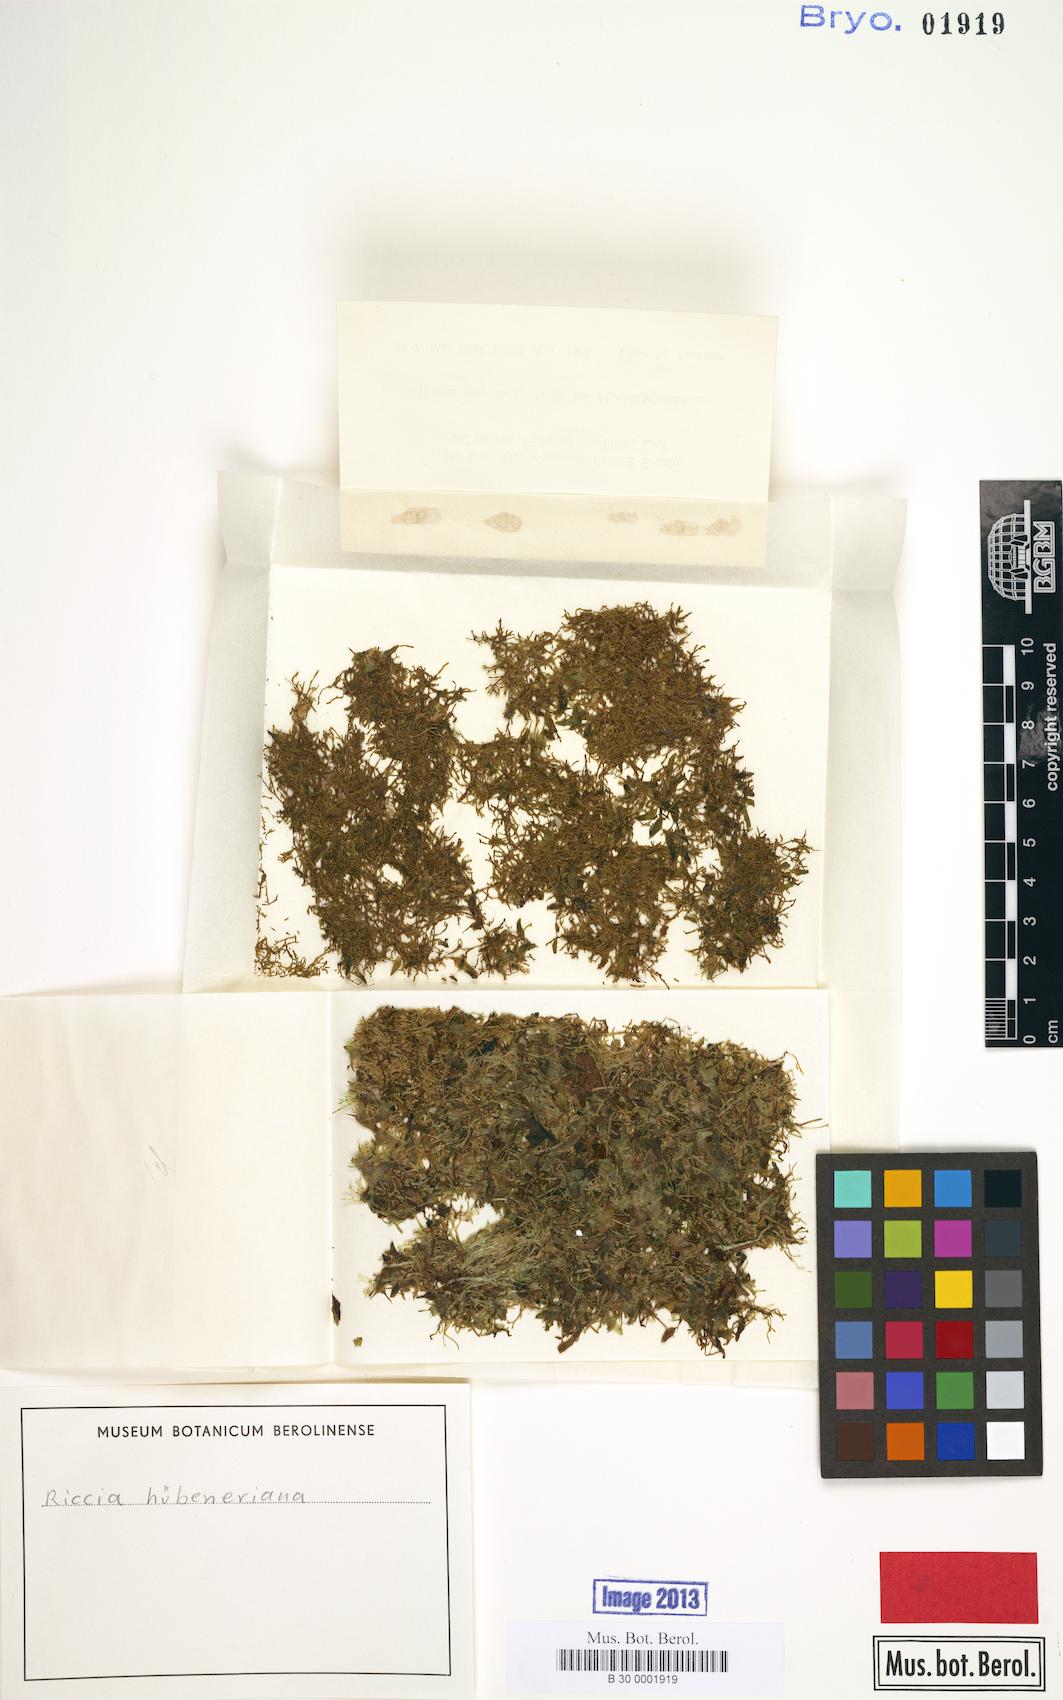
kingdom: Plantae
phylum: Marchantiophyta
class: Marchantiopsida
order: Marchantiales
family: Ricciaceae
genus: Riccia
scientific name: Riccia huebeneriana
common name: Violet crystalwort
